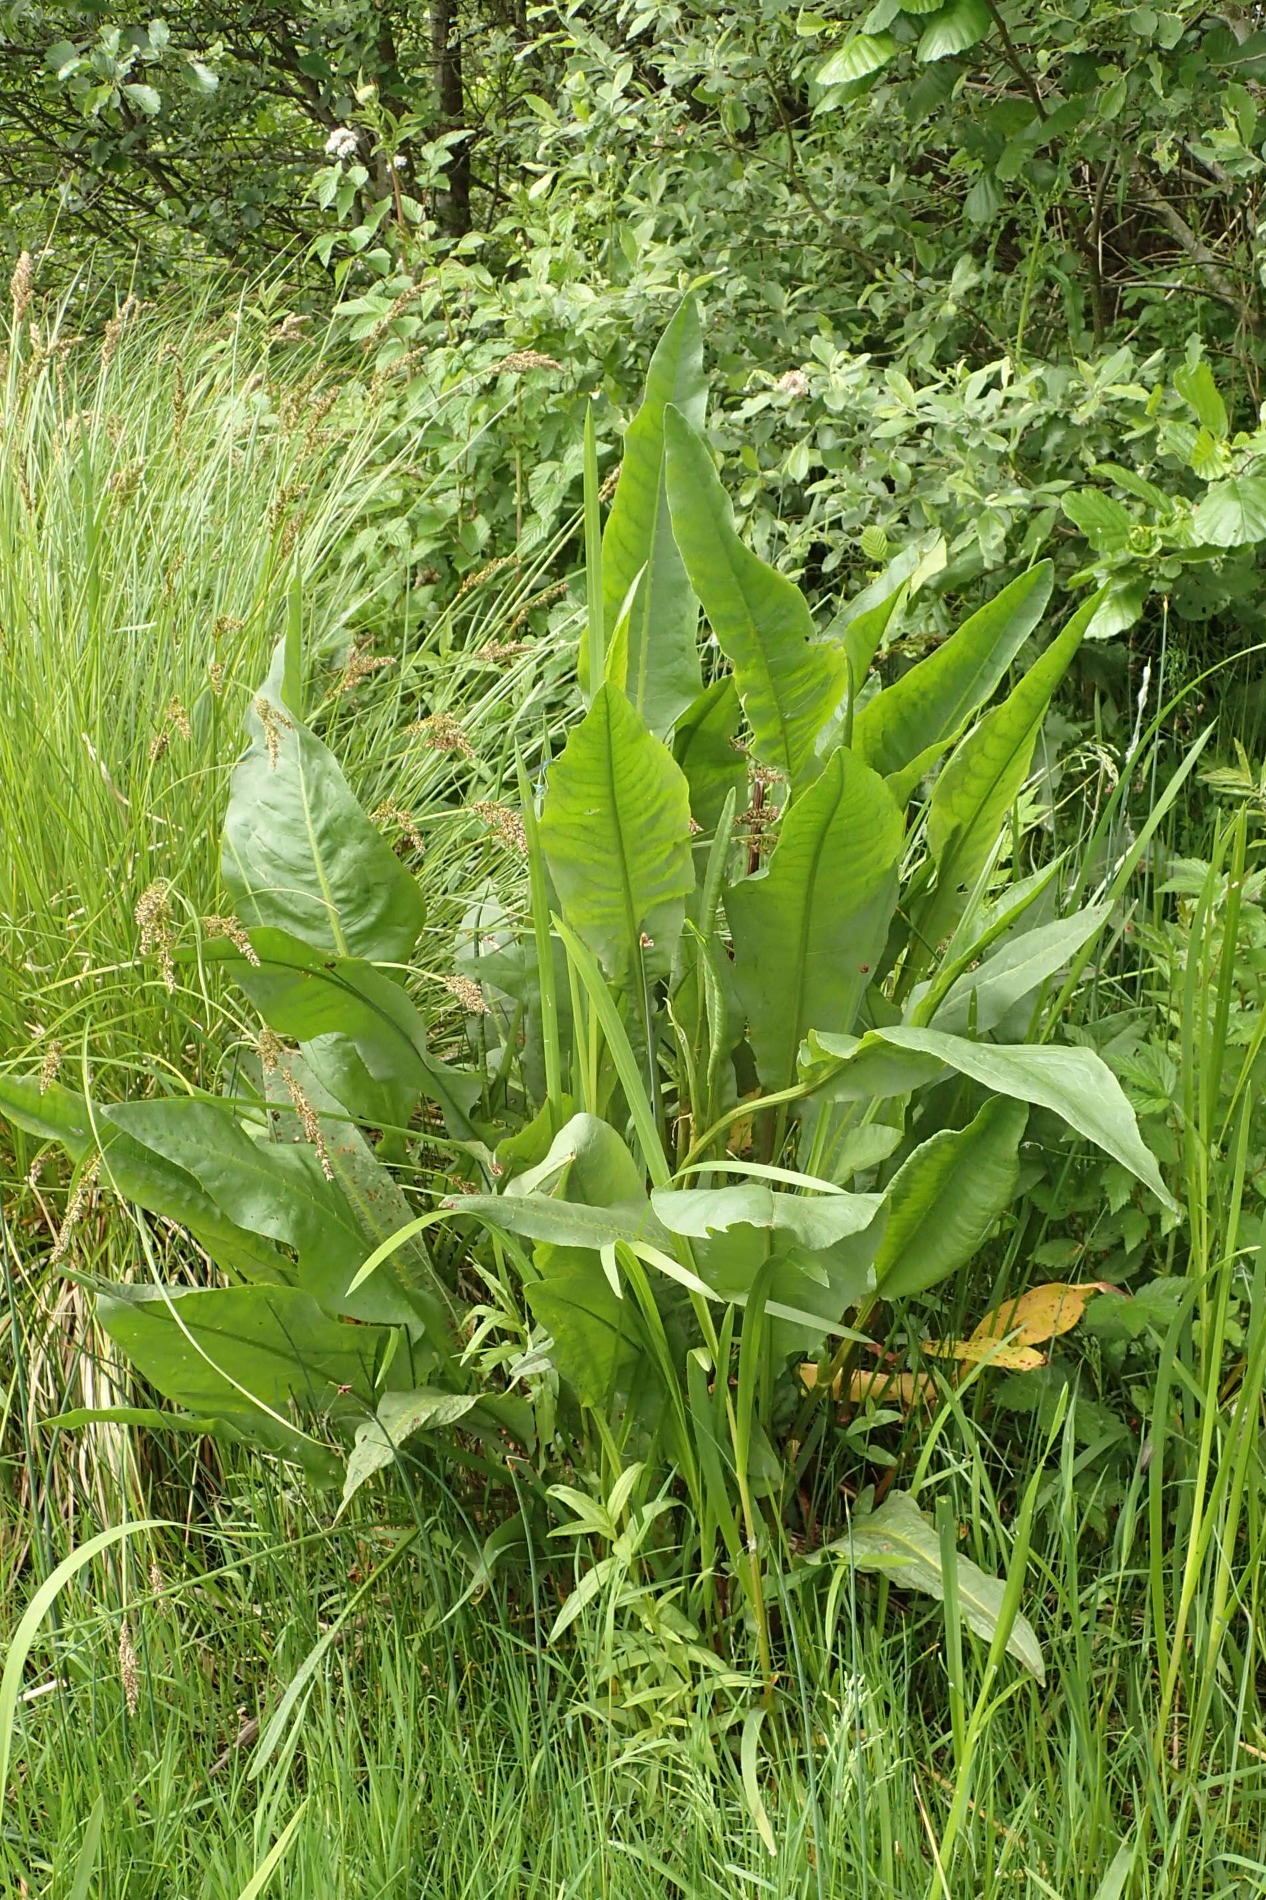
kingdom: Plantae
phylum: Tracheophyta
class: Magnoliopsida
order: Caryophyllales
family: Polygonaceae
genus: Rumex
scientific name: Rumex hydrolapathum
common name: Vand-skræppe
